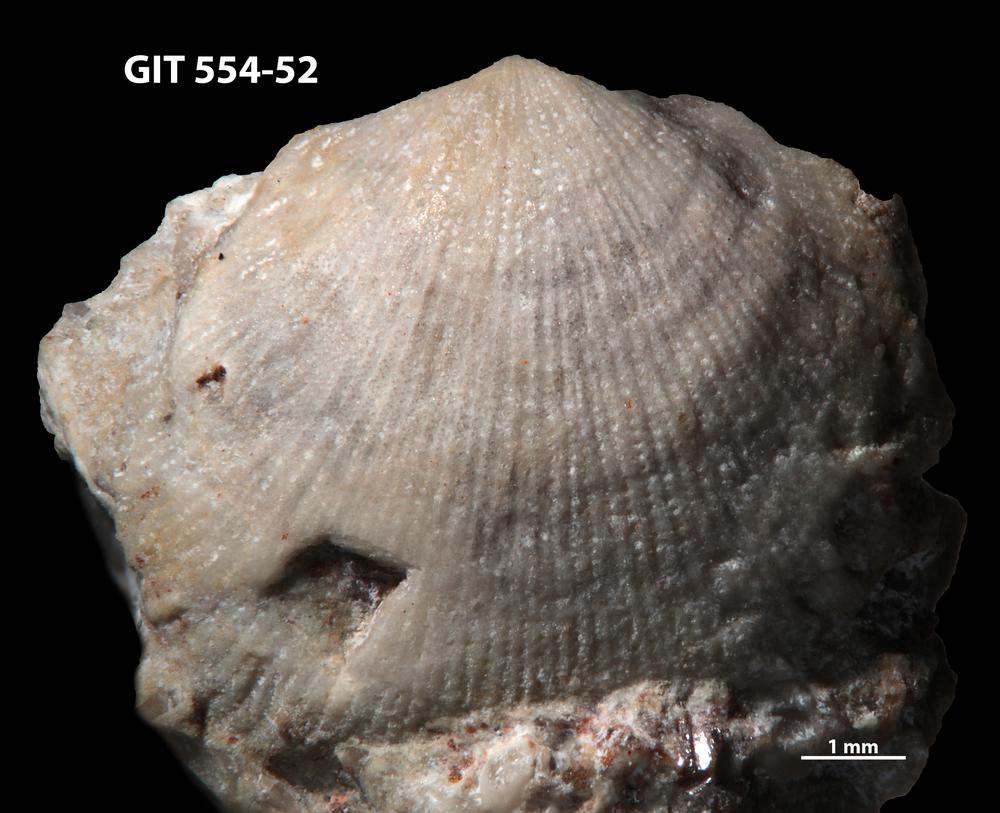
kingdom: Animalia
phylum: Brachiopoda
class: Rhynchonellata
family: Linoporellidae
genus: Linoporella
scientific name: Linoporella Orthis punctata
